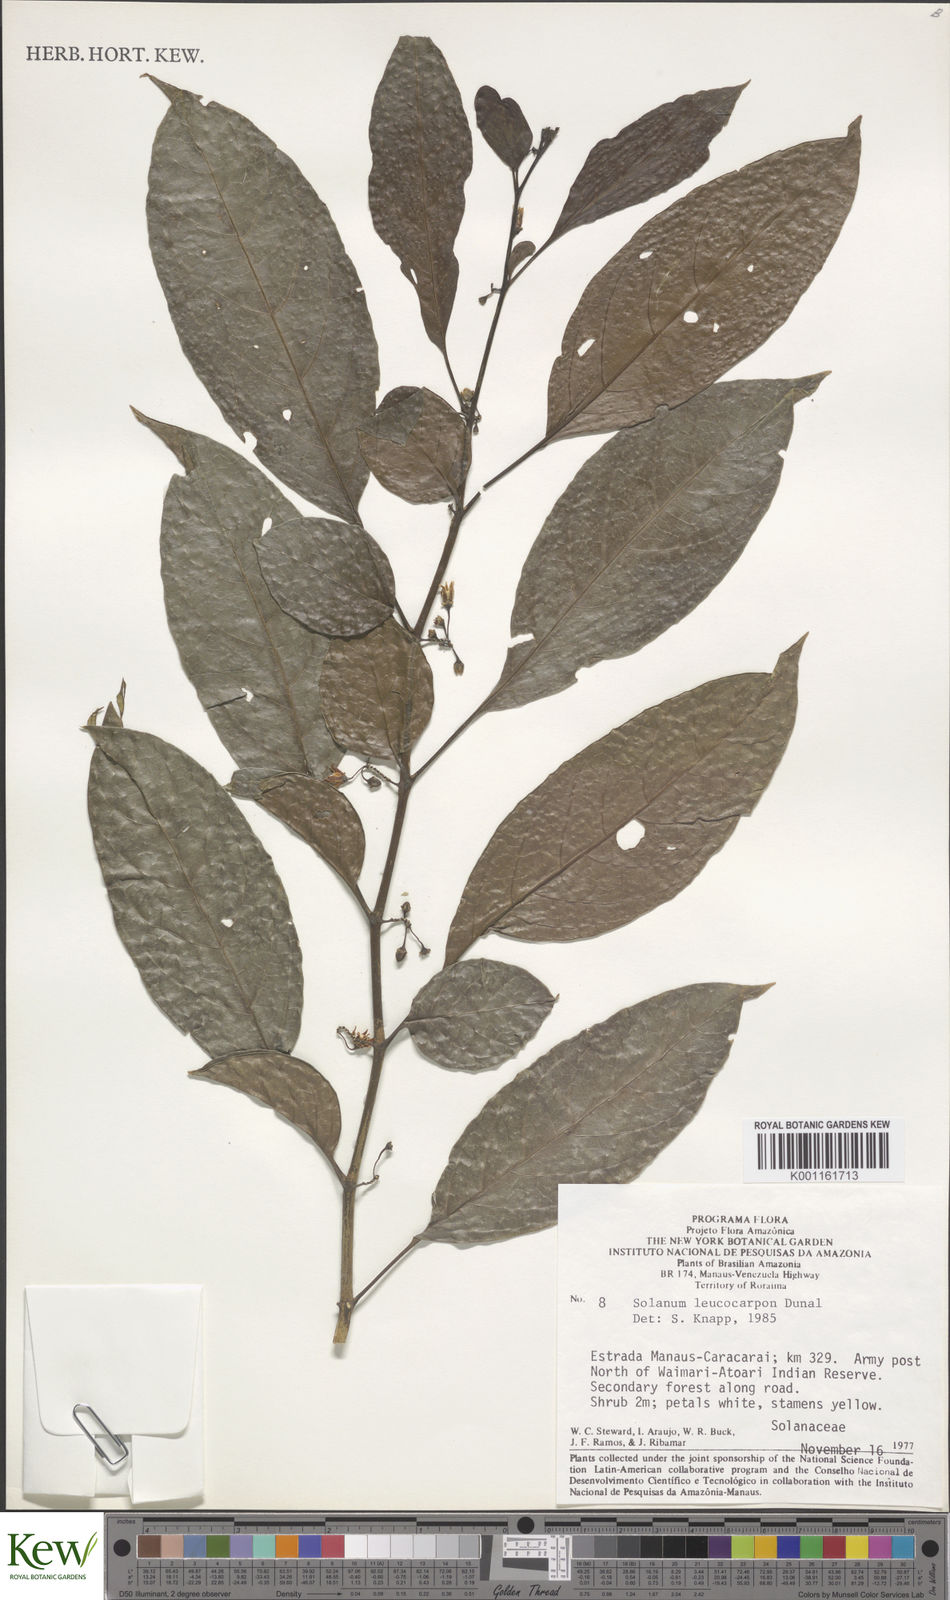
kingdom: Plantae
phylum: Tracheophyta
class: Magnoliopsida
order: Solanales
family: Solanaceae
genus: Solanum
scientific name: Solanum leucocarpon
